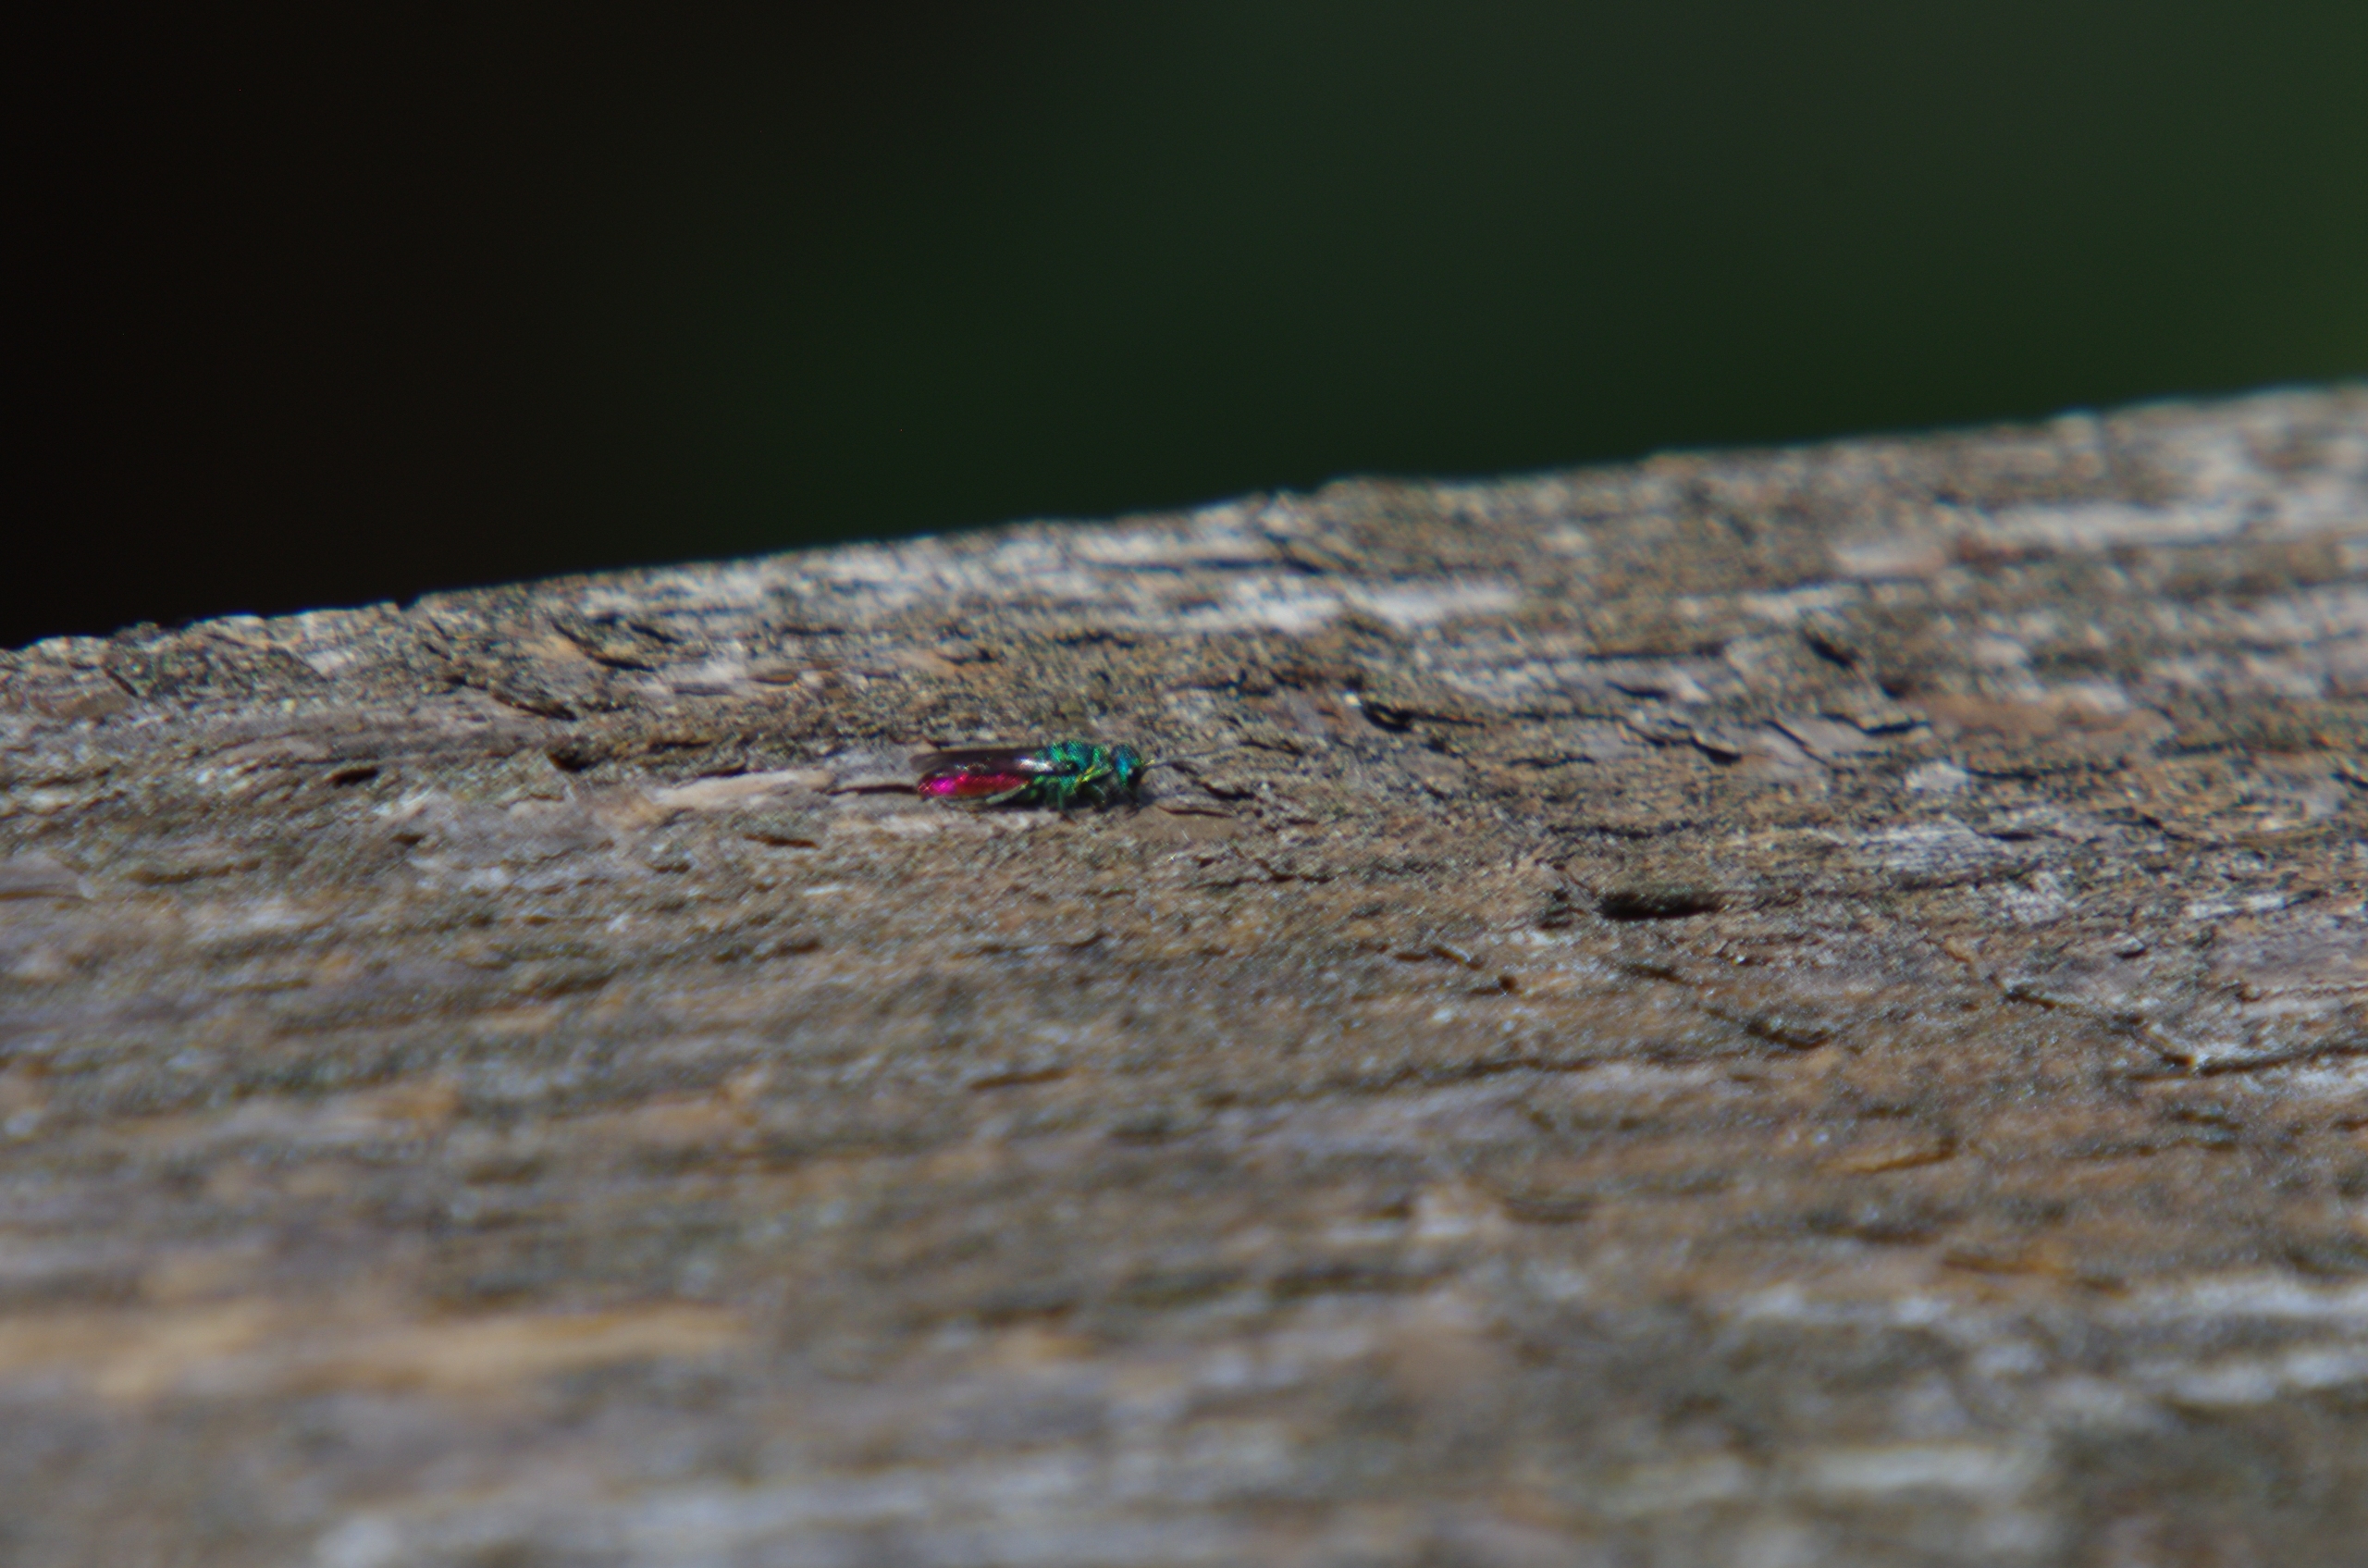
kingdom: Animalia
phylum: Arthropoda
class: Insecta
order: Hymenoptera
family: Chrysididae
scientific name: Chrysididae
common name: Guldhvepse
